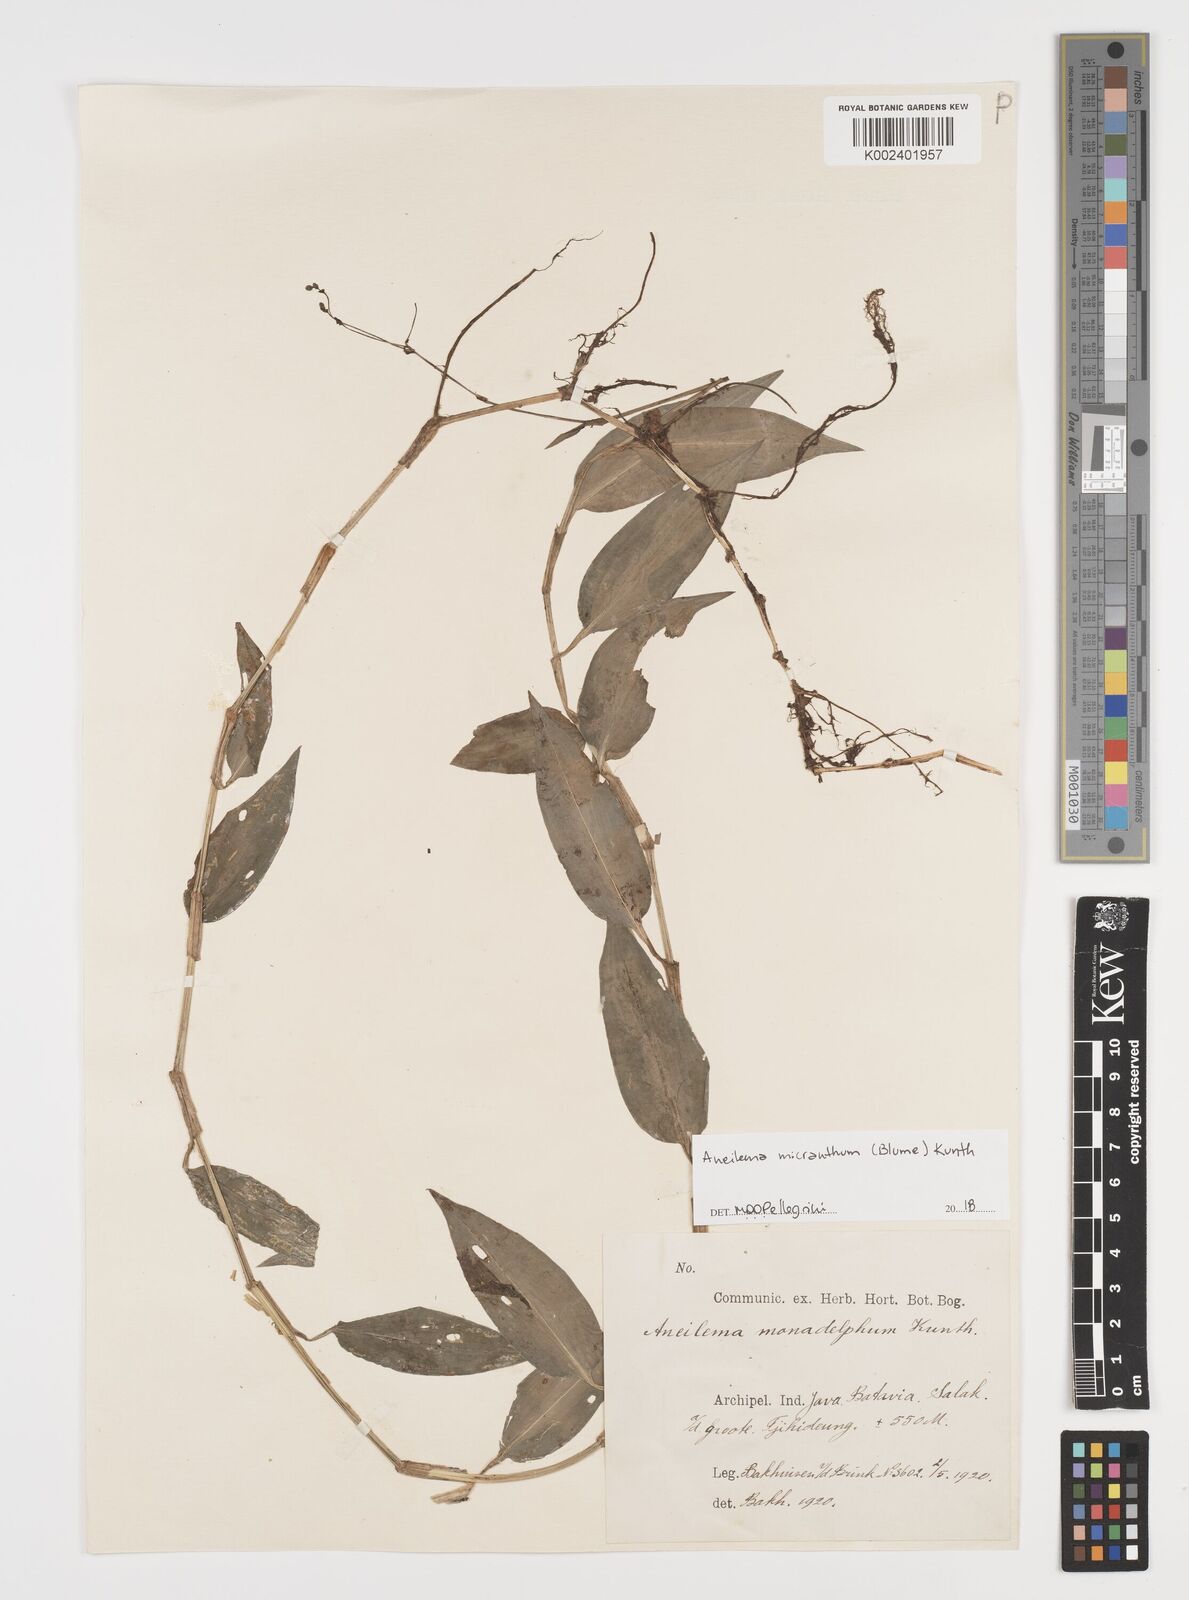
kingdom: Plantae
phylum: Tracheophyta
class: Liliopsida
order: Commelinales
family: Commelinaceae
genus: Rhopalephora
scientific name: Rhopalephora vitiensis
